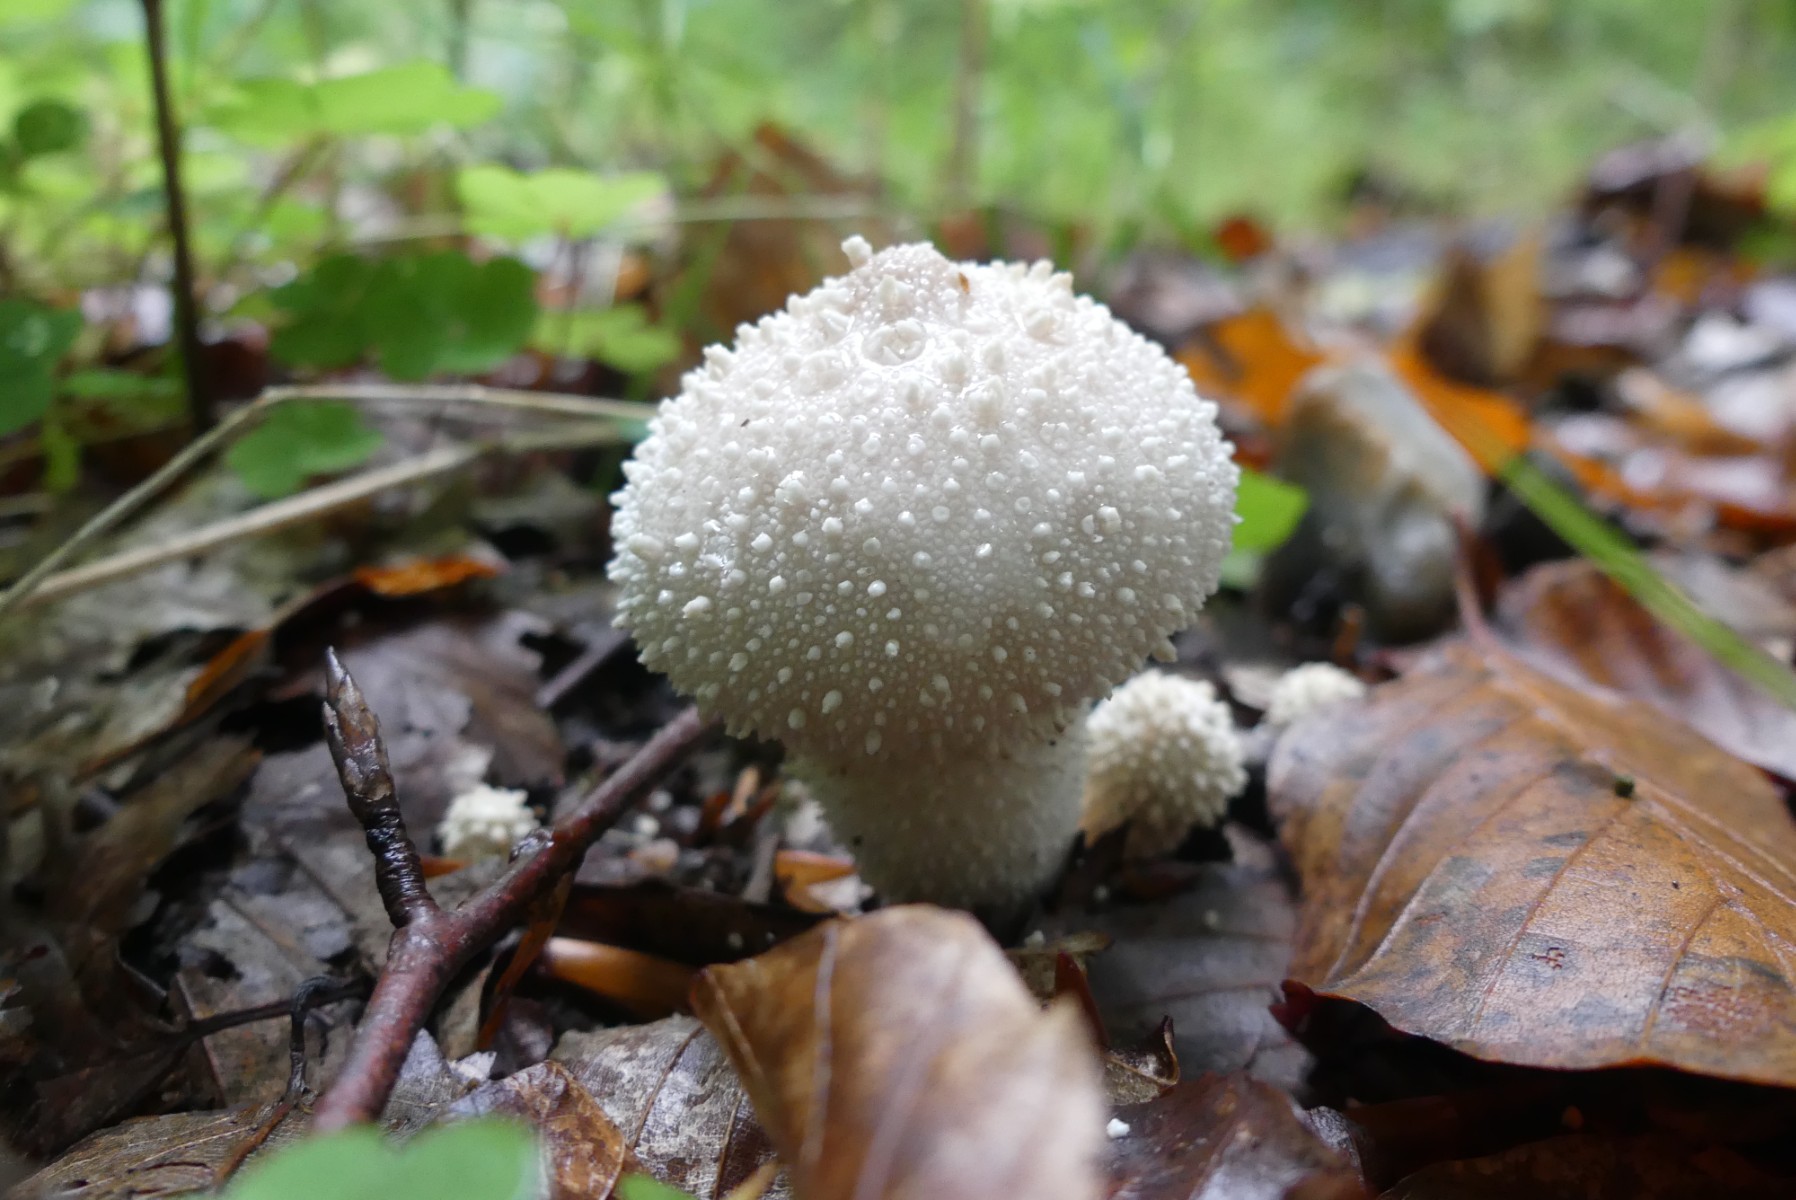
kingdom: Fungi
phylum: Basidiomycota
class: Agaricomycetes
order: Agaricales
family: Lycoperdaceae
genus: Lycoperdon
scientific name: Lycoperdon perlatum
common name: krystal-støvbold
